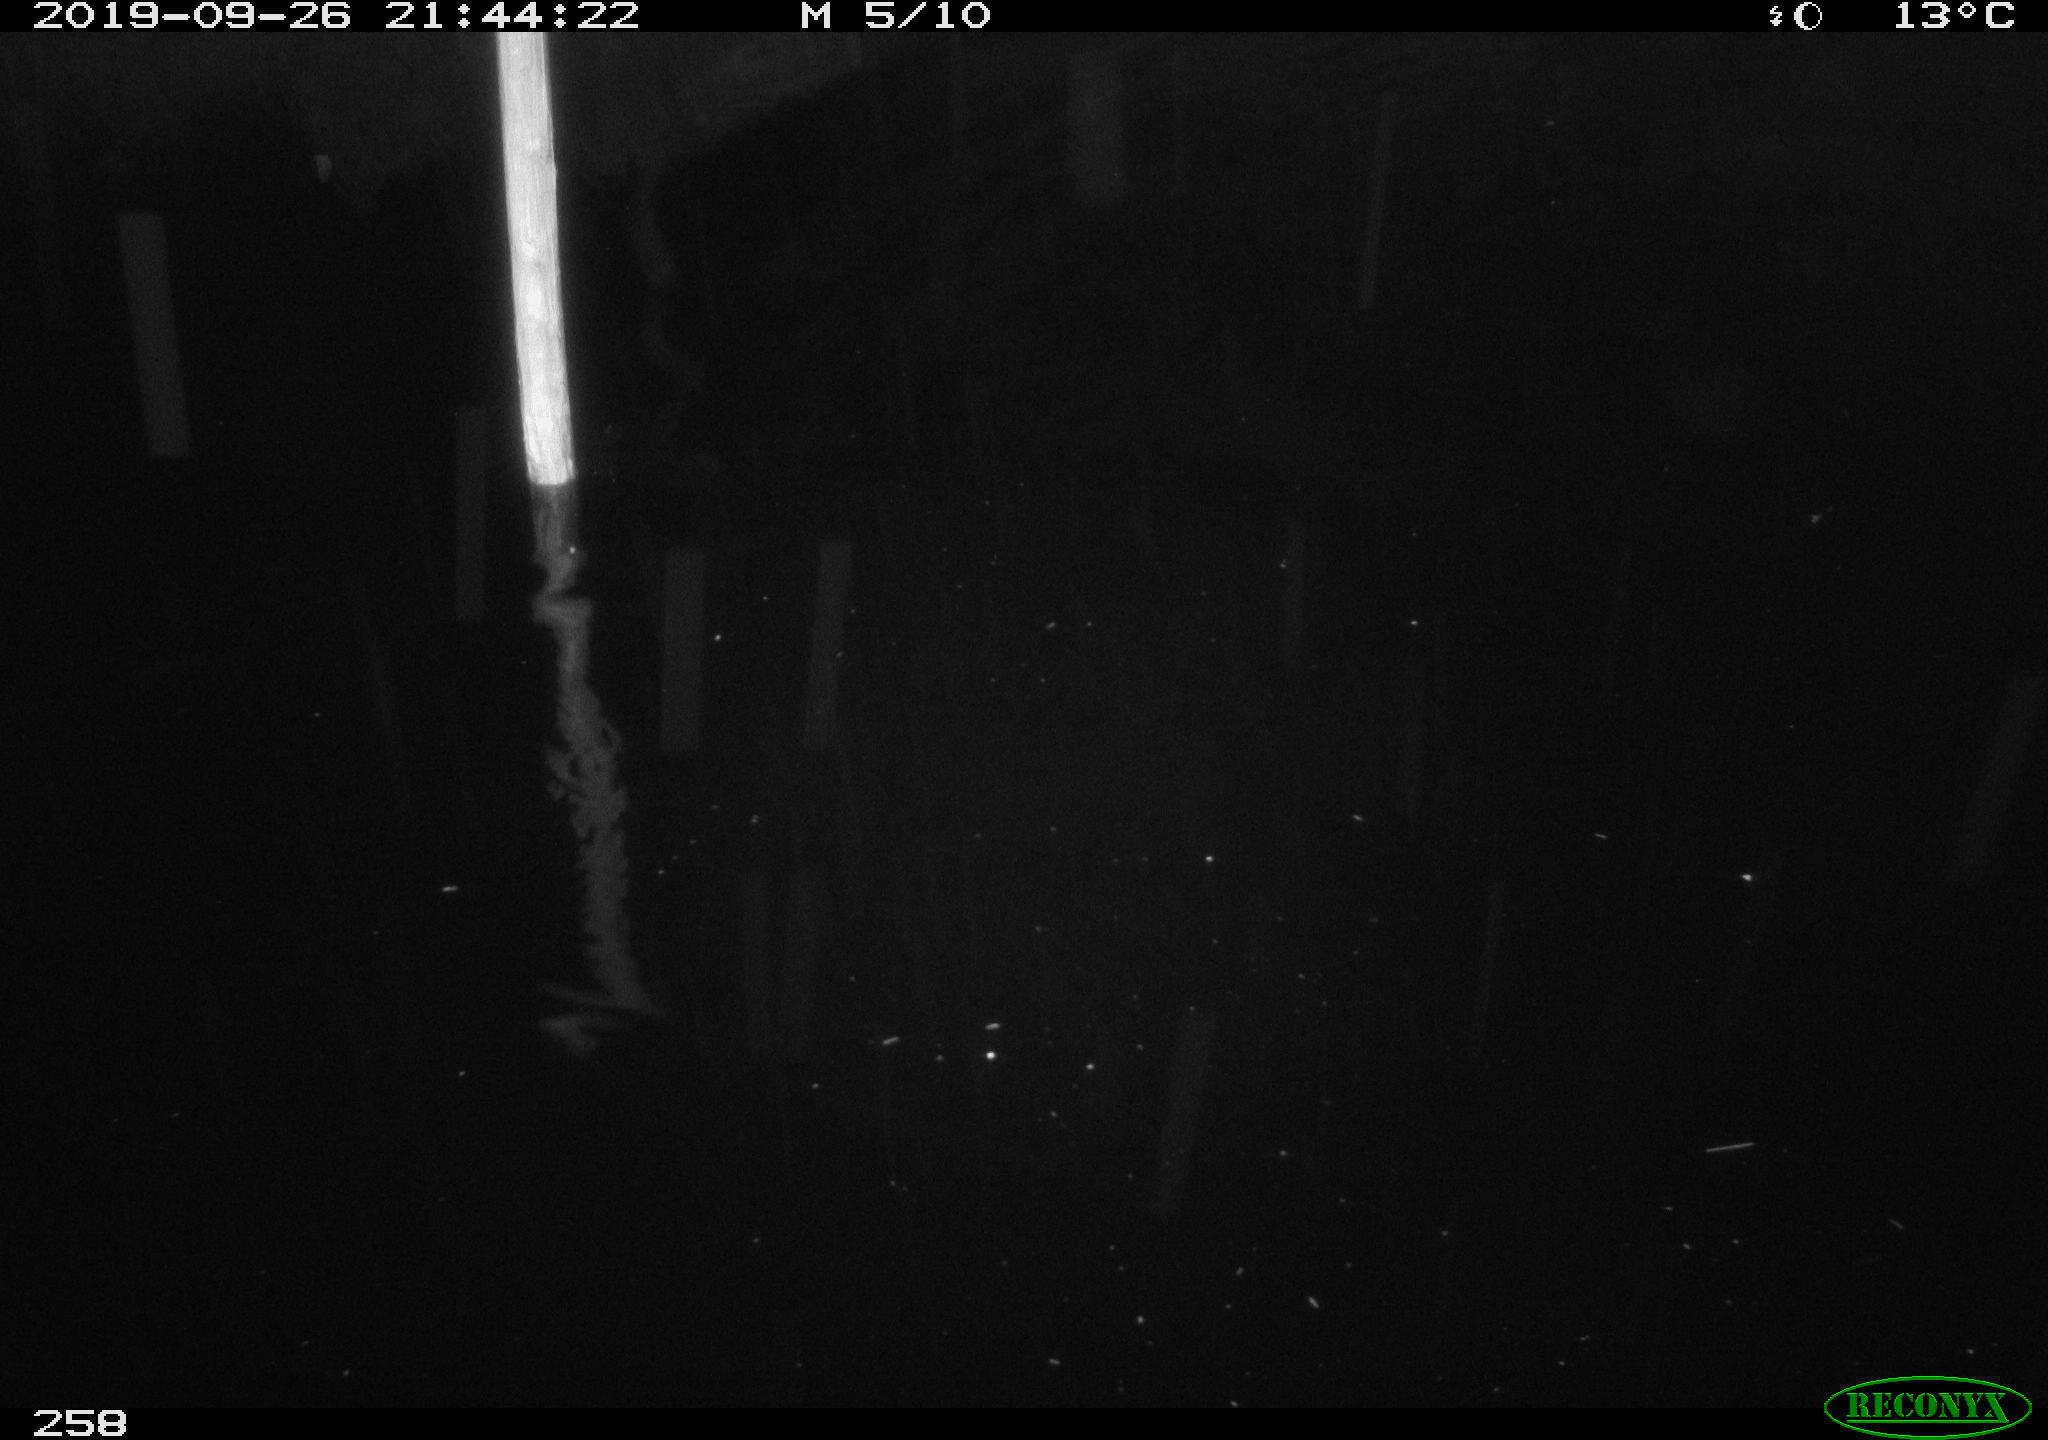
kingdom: Animalia
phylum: Chordata
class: Aves
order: Anseriformes
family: Anatidae
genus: Anas
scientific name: Anas platyrhynchos
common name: Mallard
